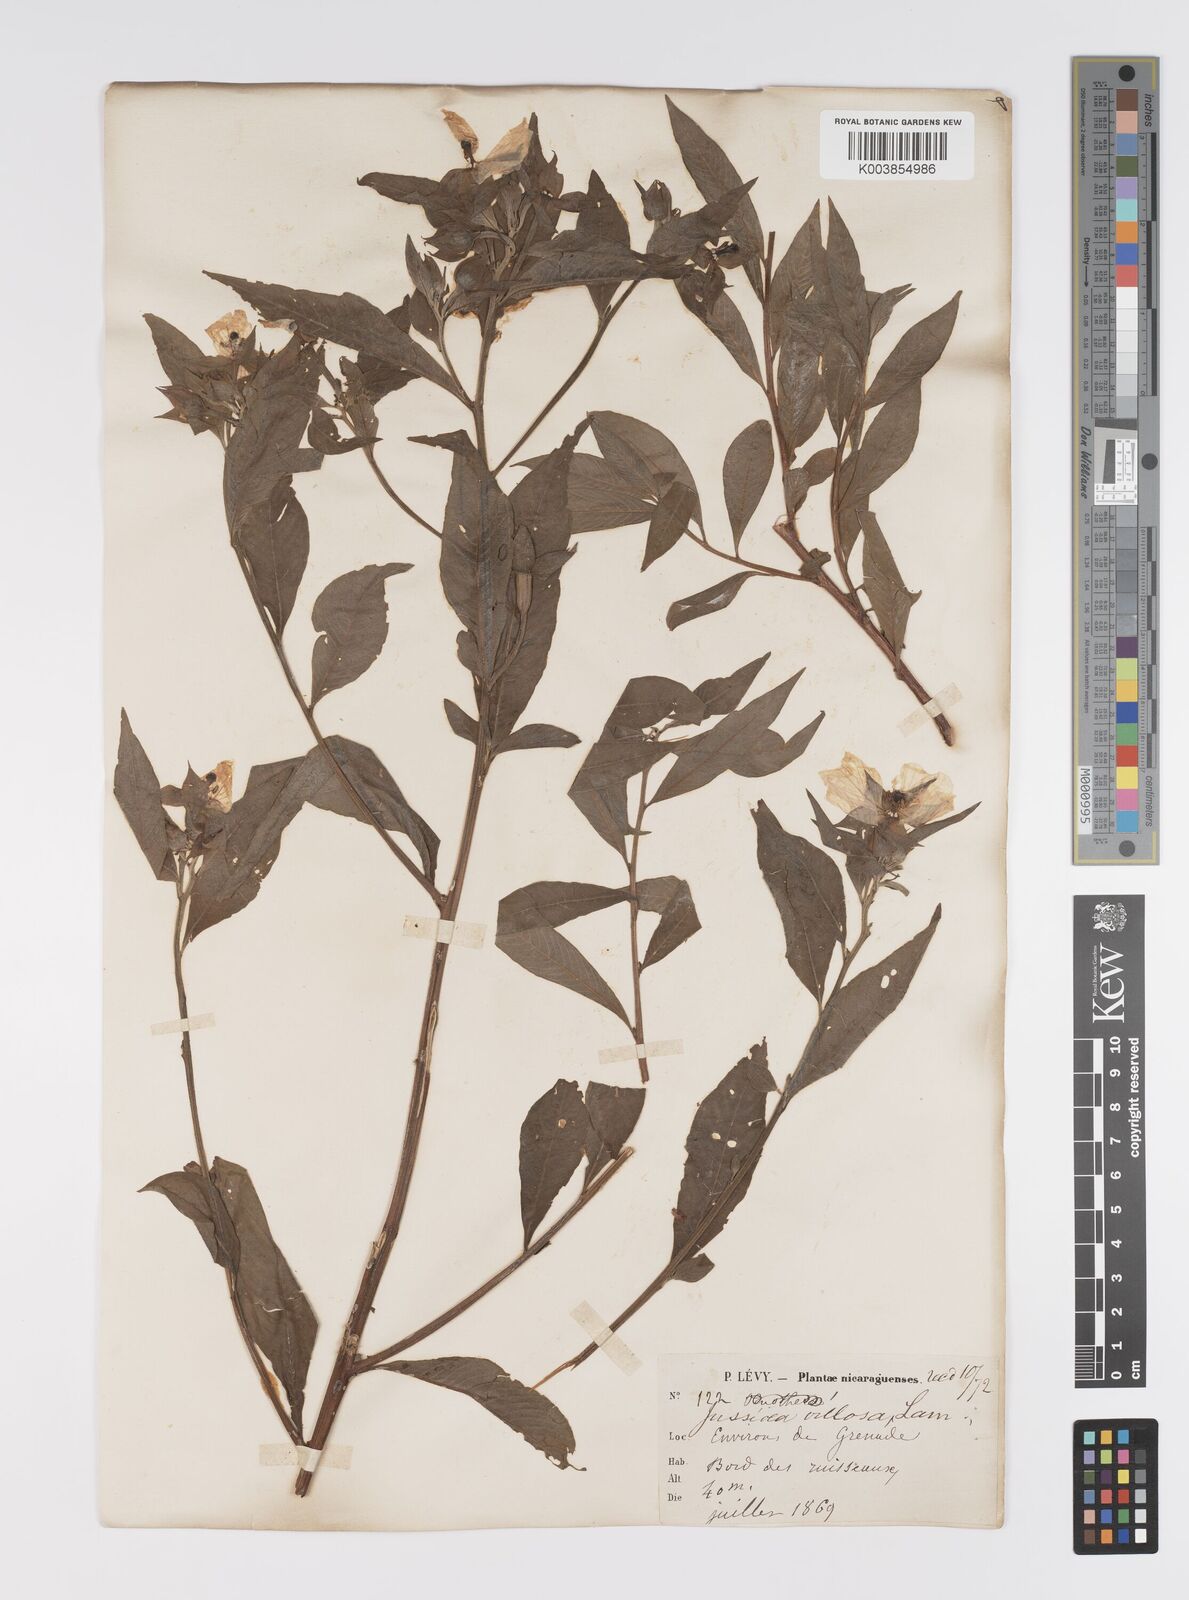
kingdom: Plantae
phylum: Tracheophyta
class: Magnoliopsida
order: Myrtales
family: Onagraceae
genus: Ludwigia
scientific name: Ludwigia peruviana
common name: Peruvian primrose-willow
